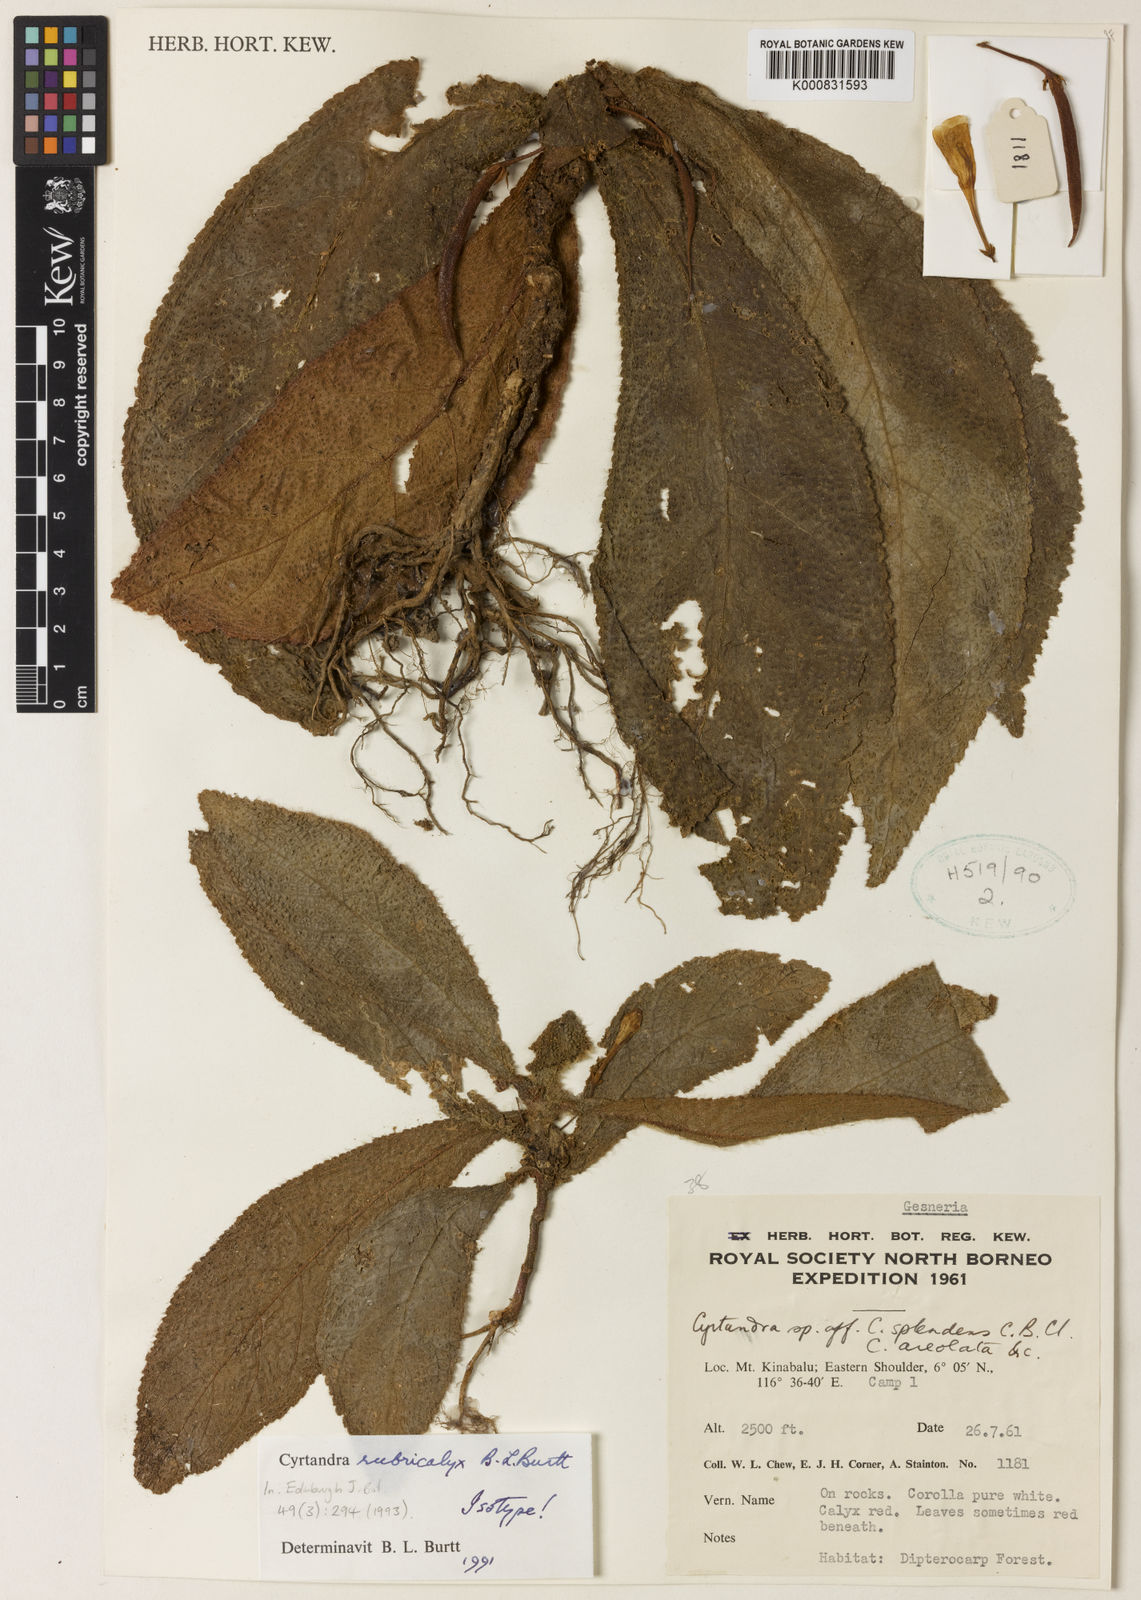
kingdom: Plantae
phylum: Tracheophyta
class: Magnoliopsida
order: Lamiales
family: Gesneriaceae
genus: Cyrtandra
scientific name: Cyrtandra rubricalyx
